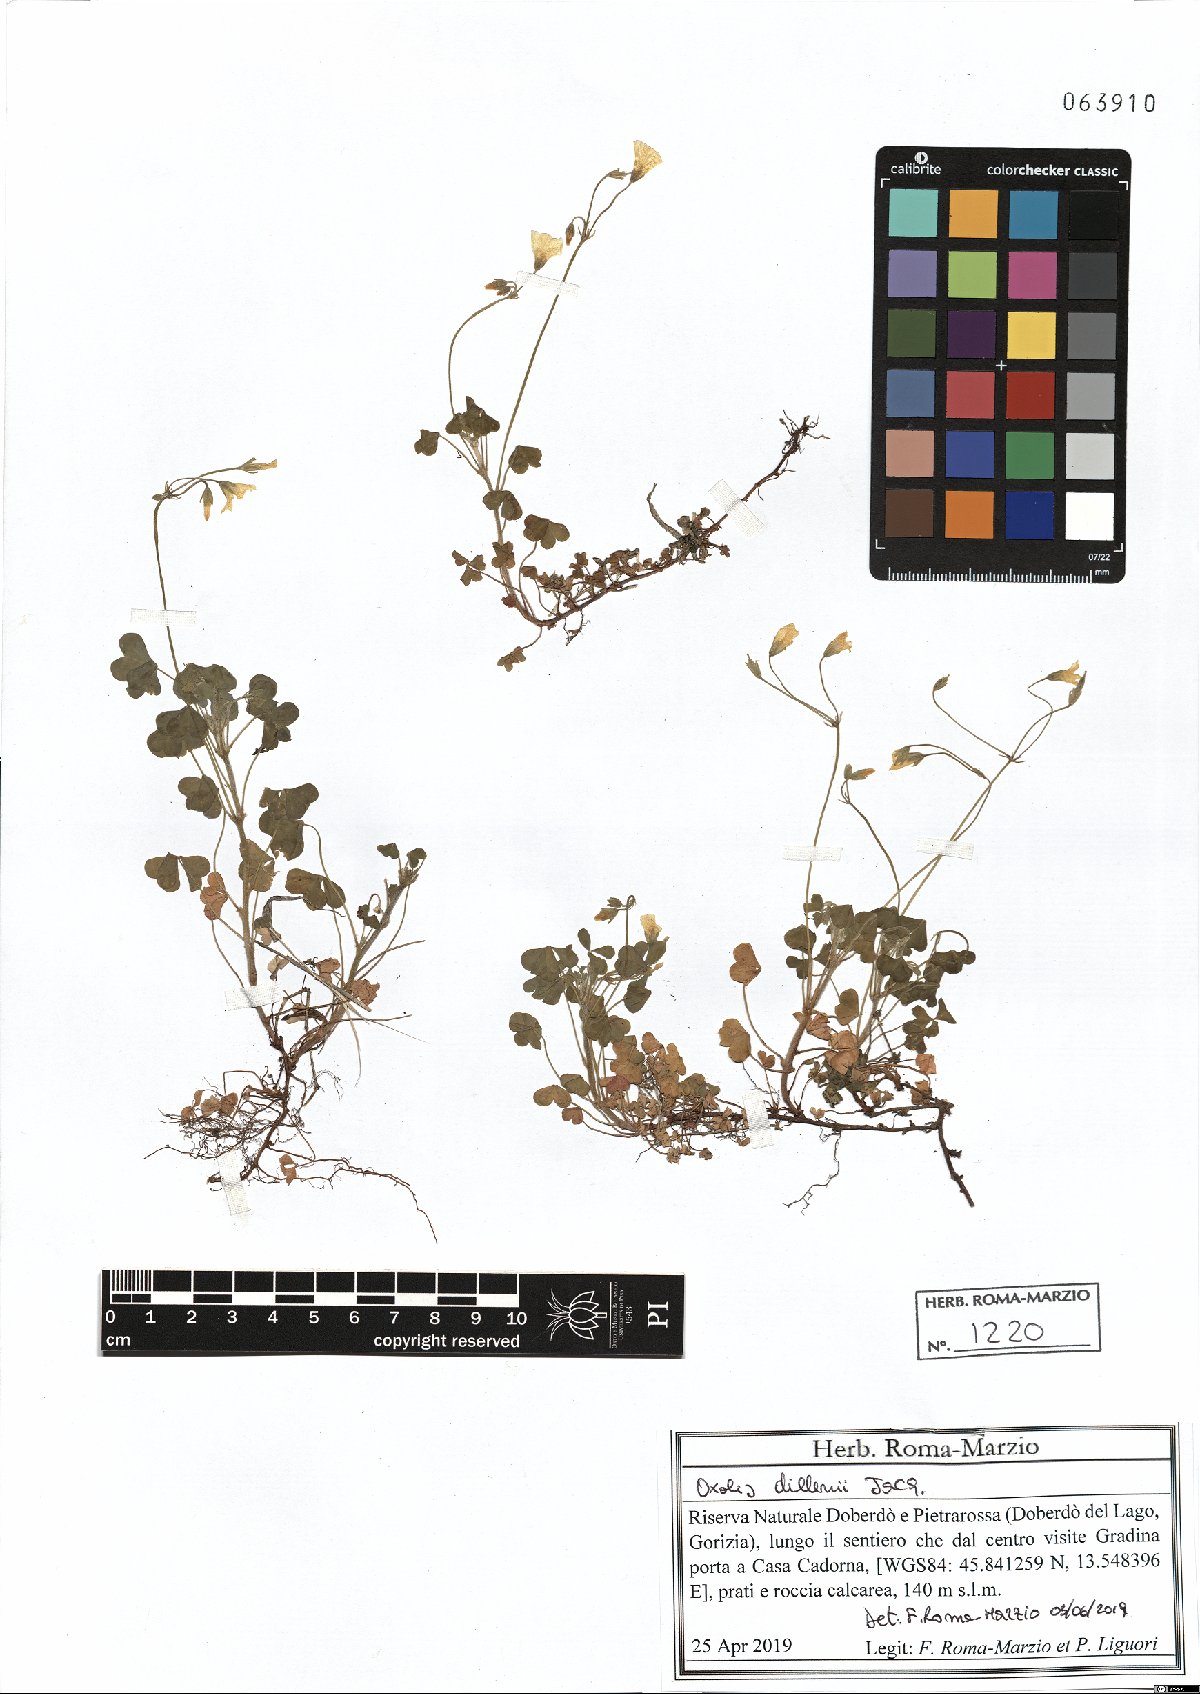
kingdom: Plantae
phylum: Tracheophyta
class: Magnoliopsida
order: Oxalidales
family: Oxalidaceae
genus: Oxalis
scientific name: Oxalis dillenii
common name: Sussex yellow-sorrel
